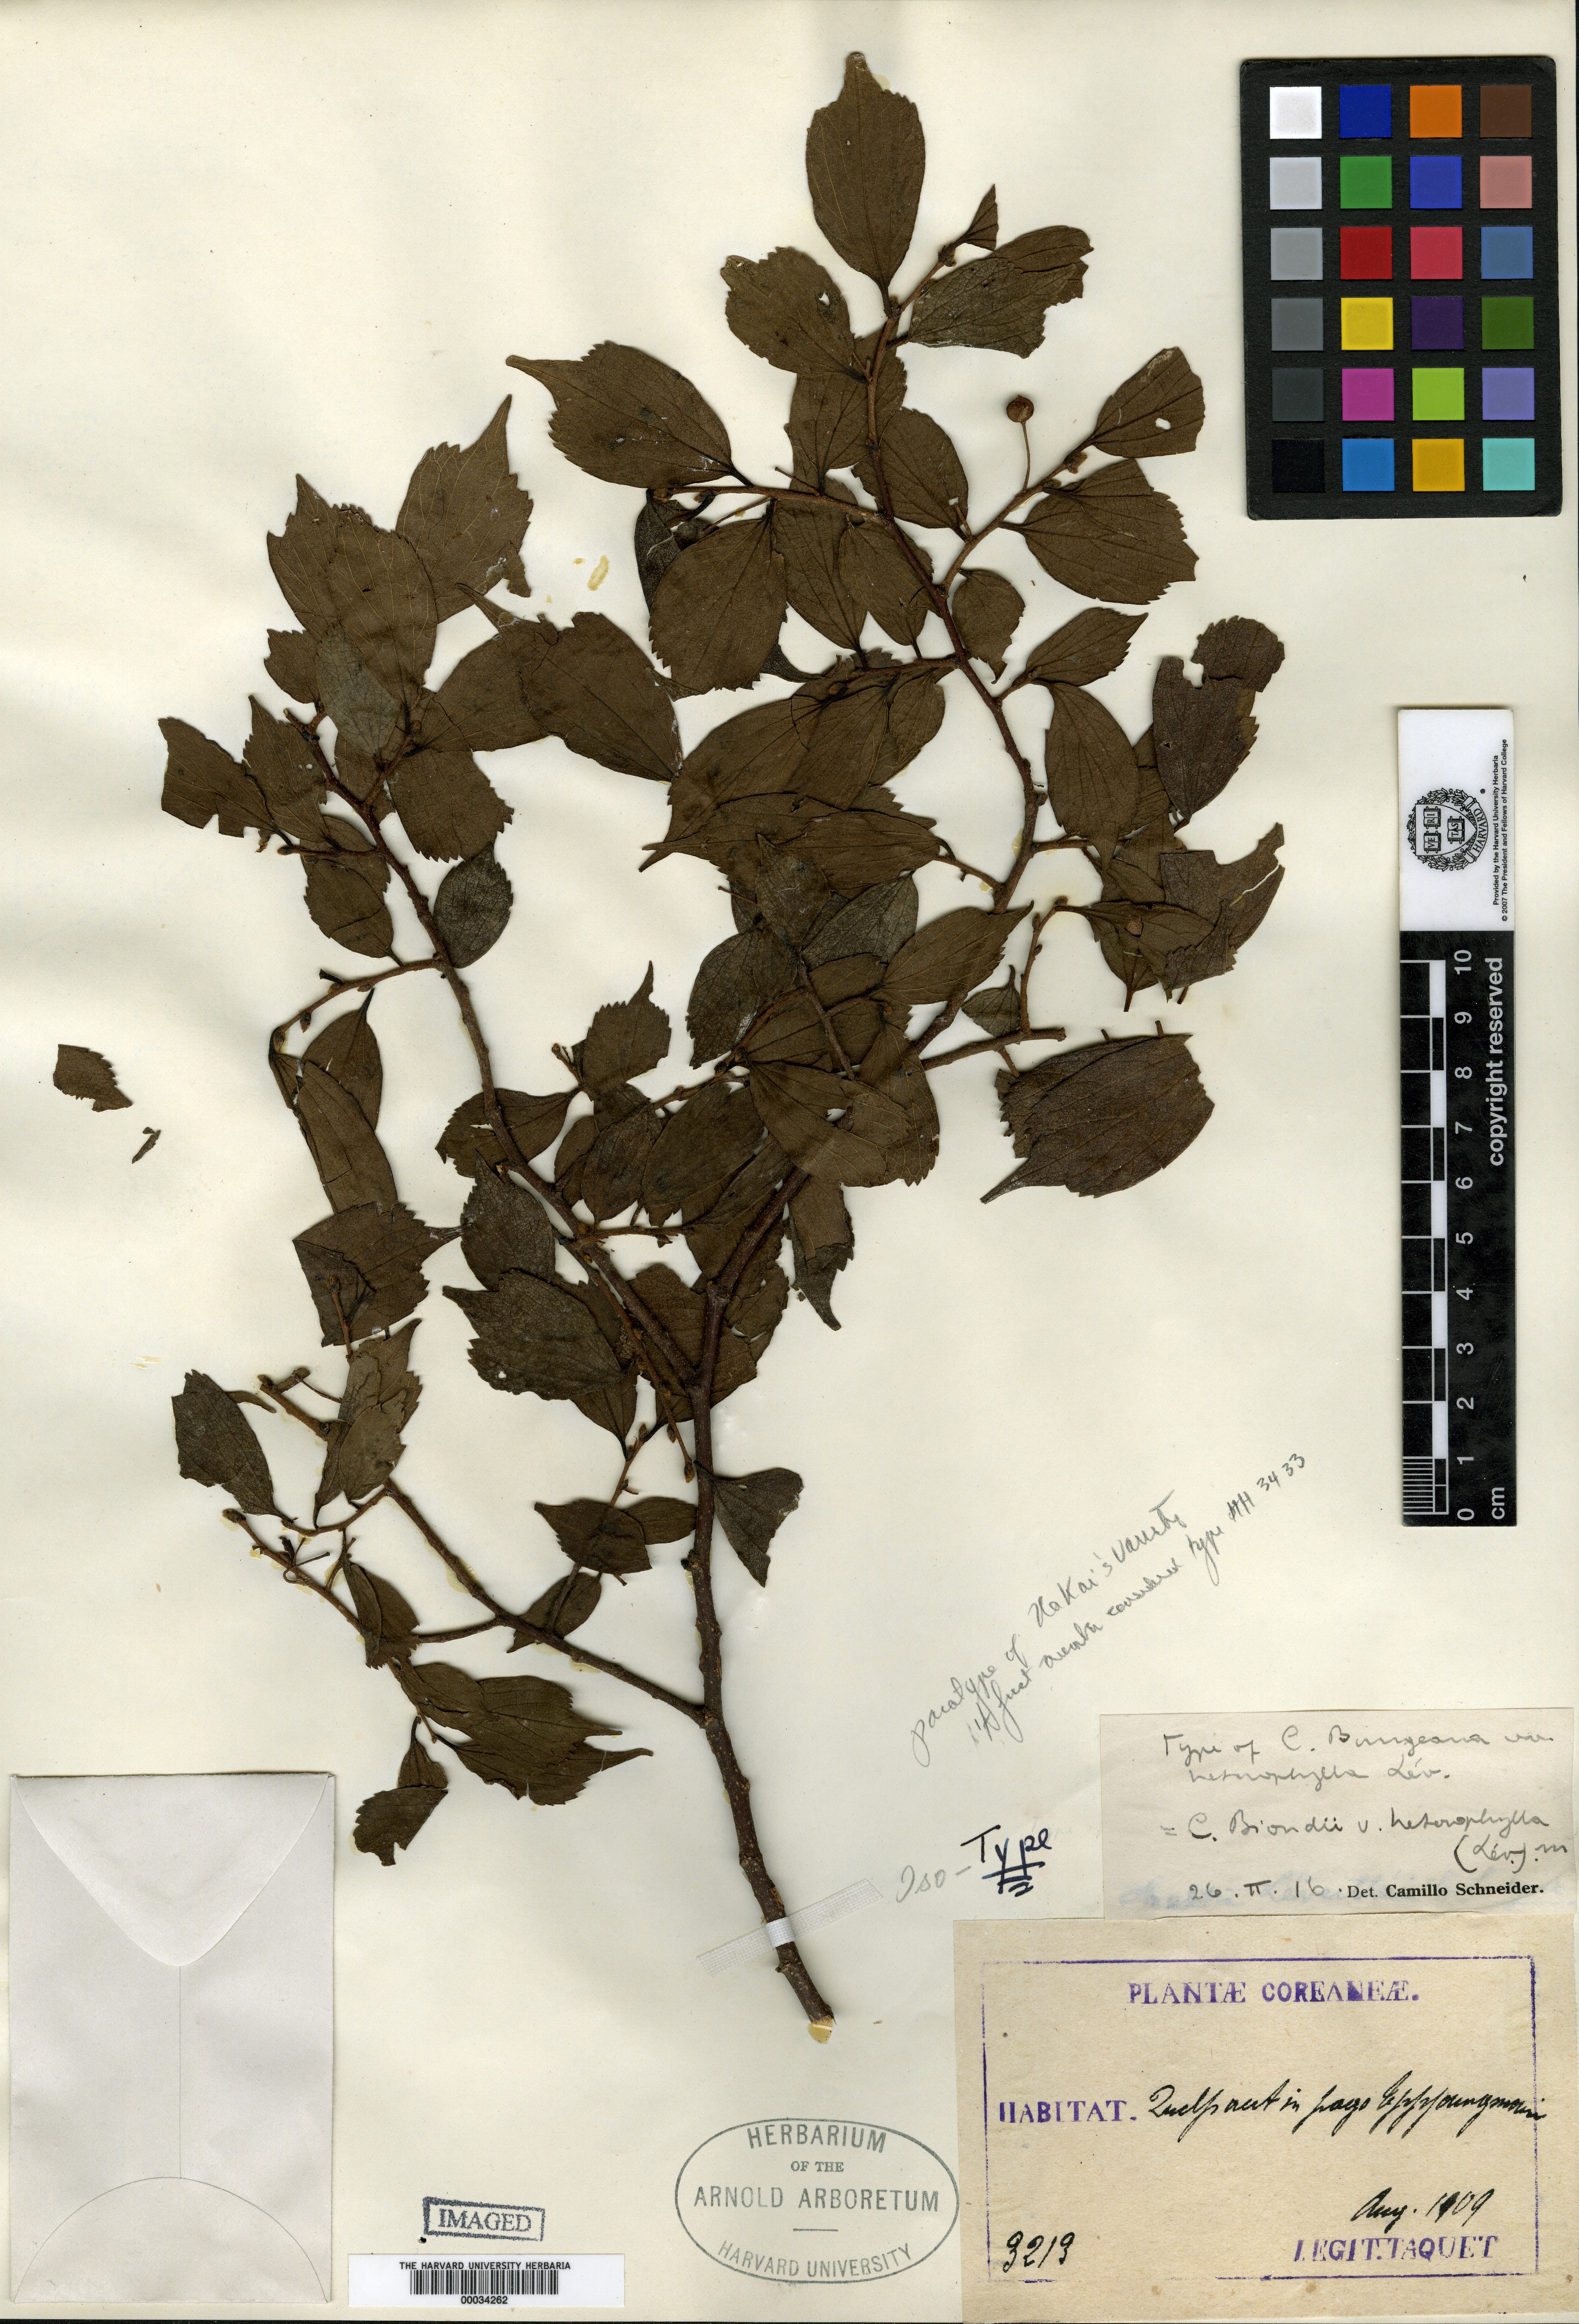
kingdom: Plantae
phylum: Tracheophyta
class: Magnoliopsida
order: Rosales
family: Cannabaceae
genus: Celtis
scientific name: Celtis biondii
